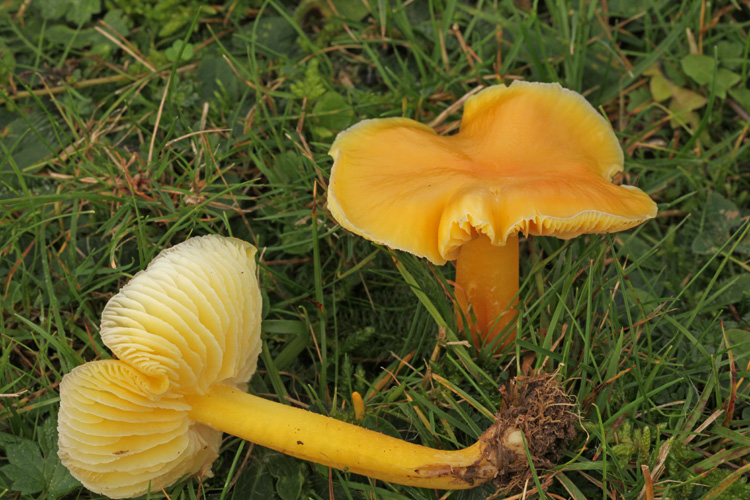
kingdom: Fungi
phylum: Basidiomycota
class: Agaricomycetes
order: Agaricales
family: Hygrophoraceae
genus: Hygrocybe
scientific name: Hygrocybe chlorophana
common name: gul vokshat
